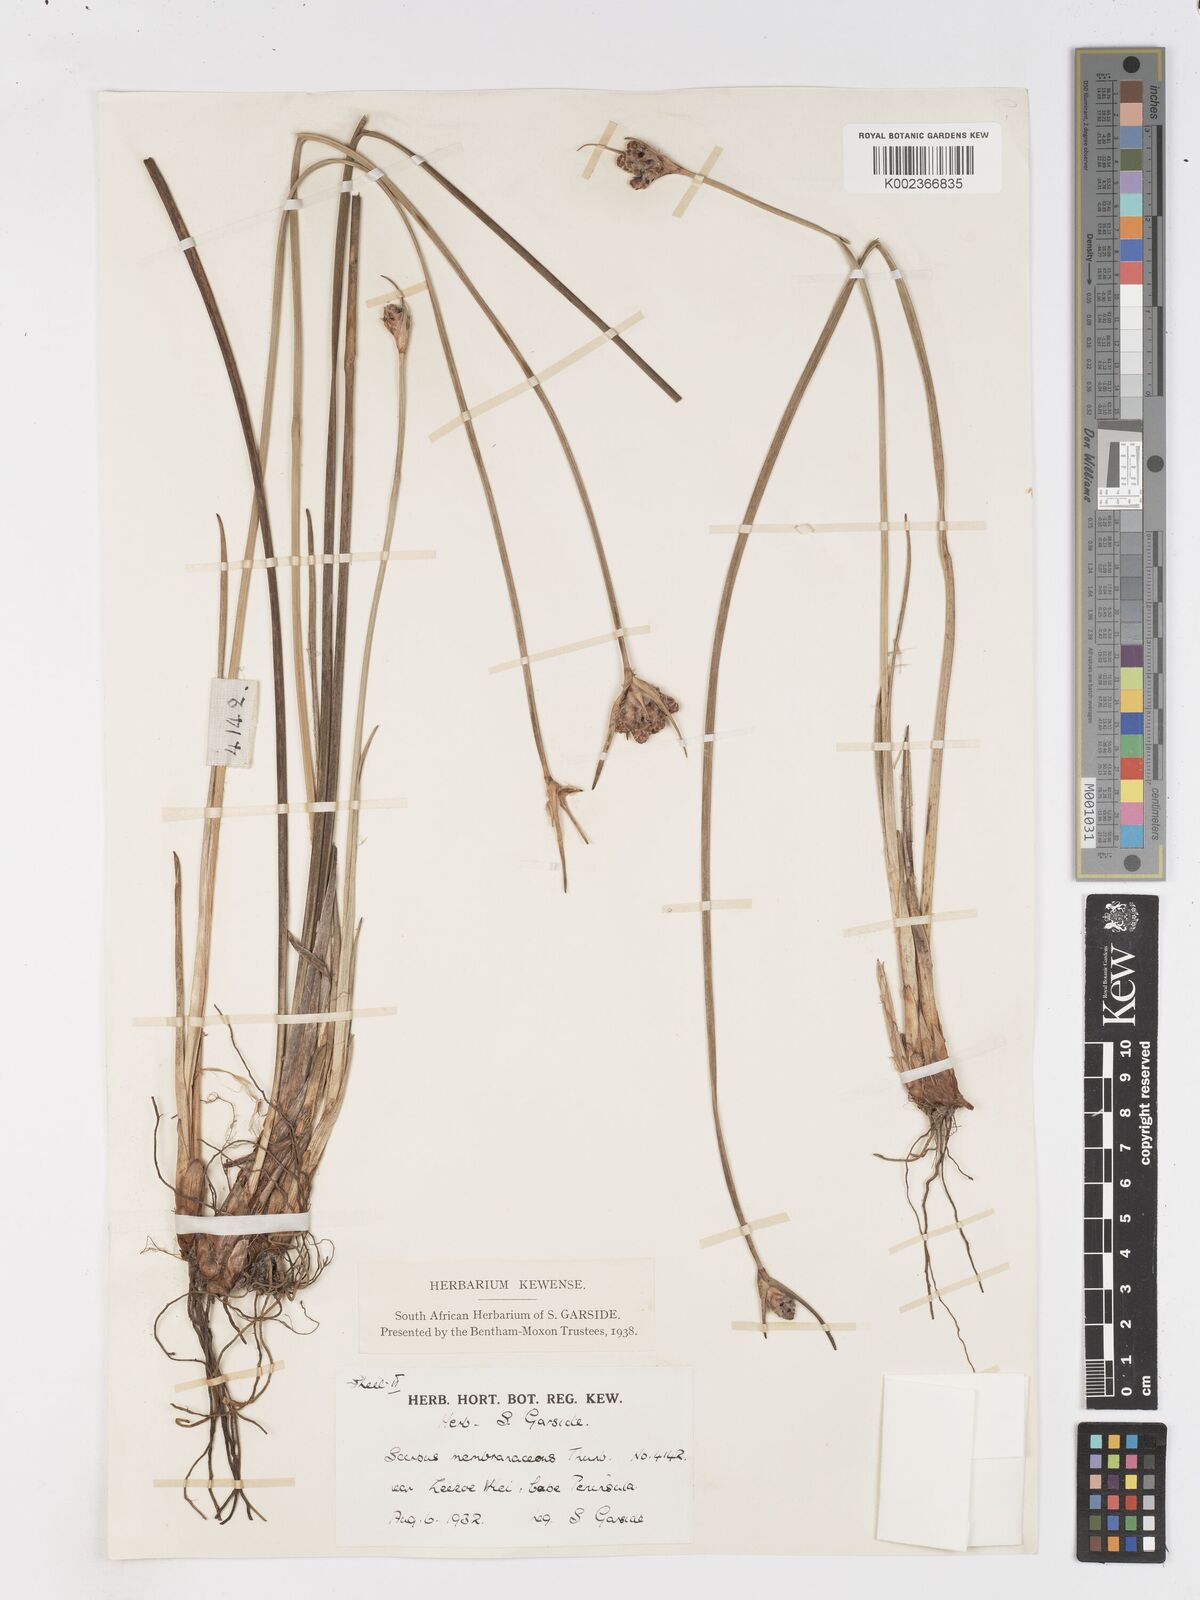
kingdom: Plantae
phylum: Tracheophyta
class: Liliopsida
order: Poales
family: Cyperaceae
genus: Hellmuthia
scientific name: Hellmuthia membranacea
